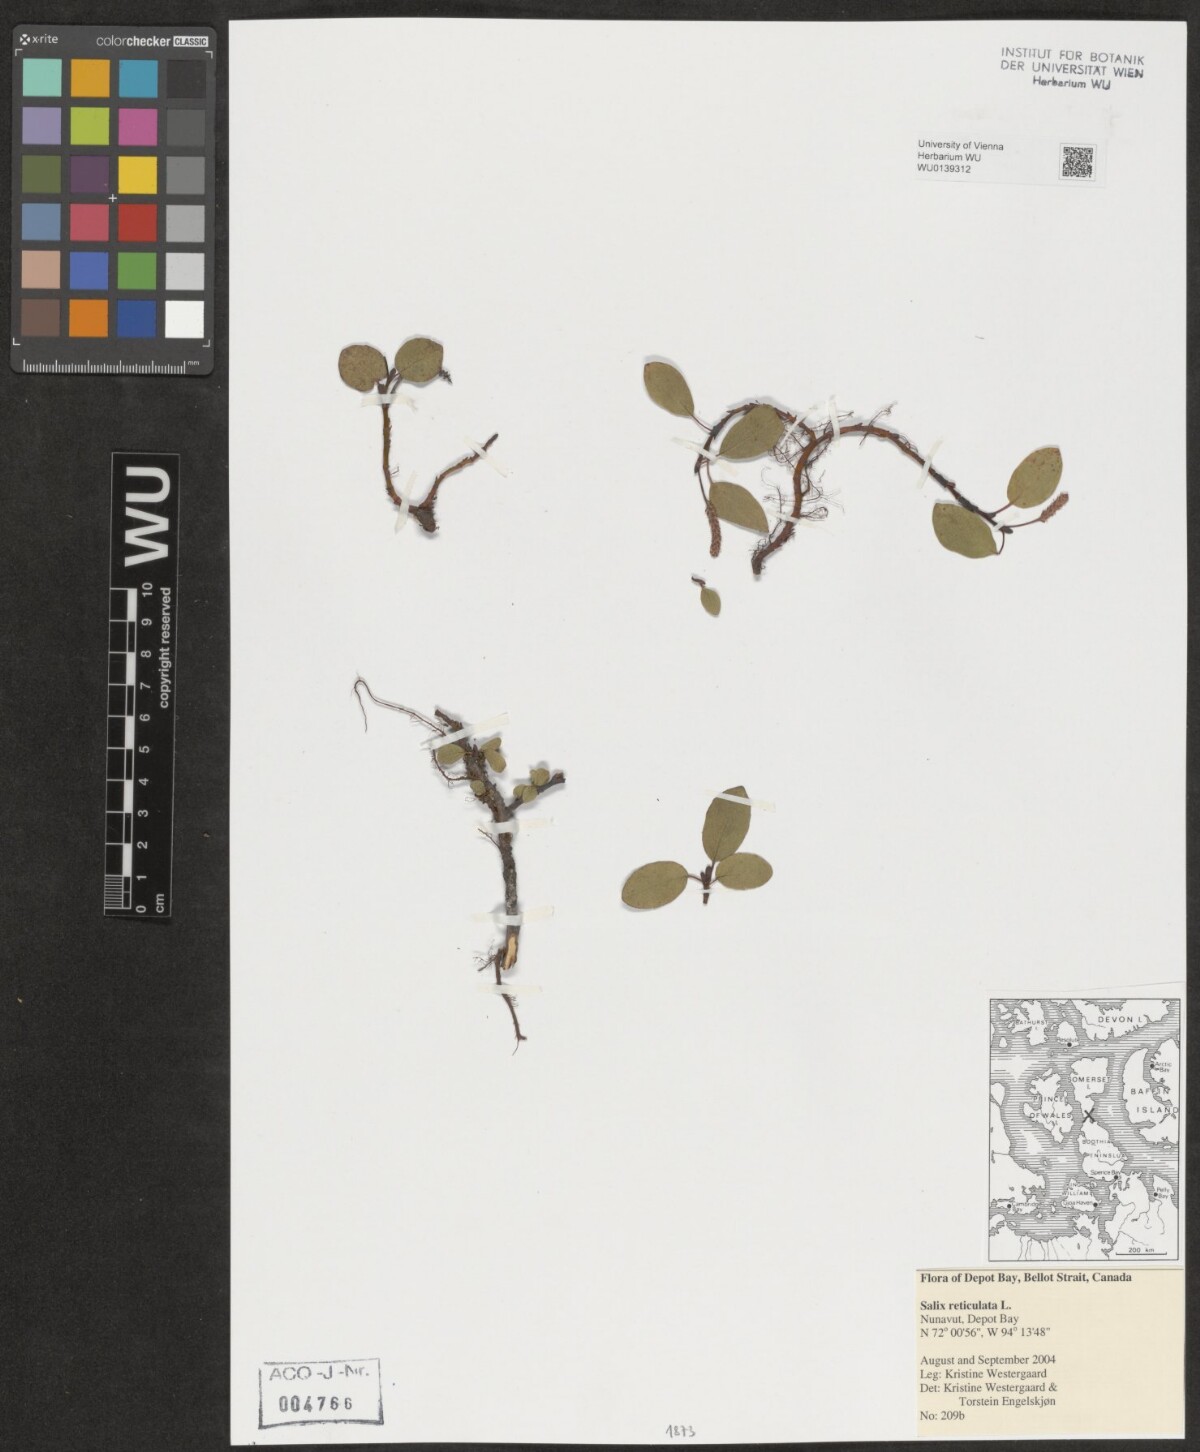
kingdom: Plantae
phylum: Tracheophyta
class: Magnoliopsida
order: Malpighiales
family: Salicaceae
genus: Salix
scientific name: Salix reticulata
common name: Net-leaved willow
